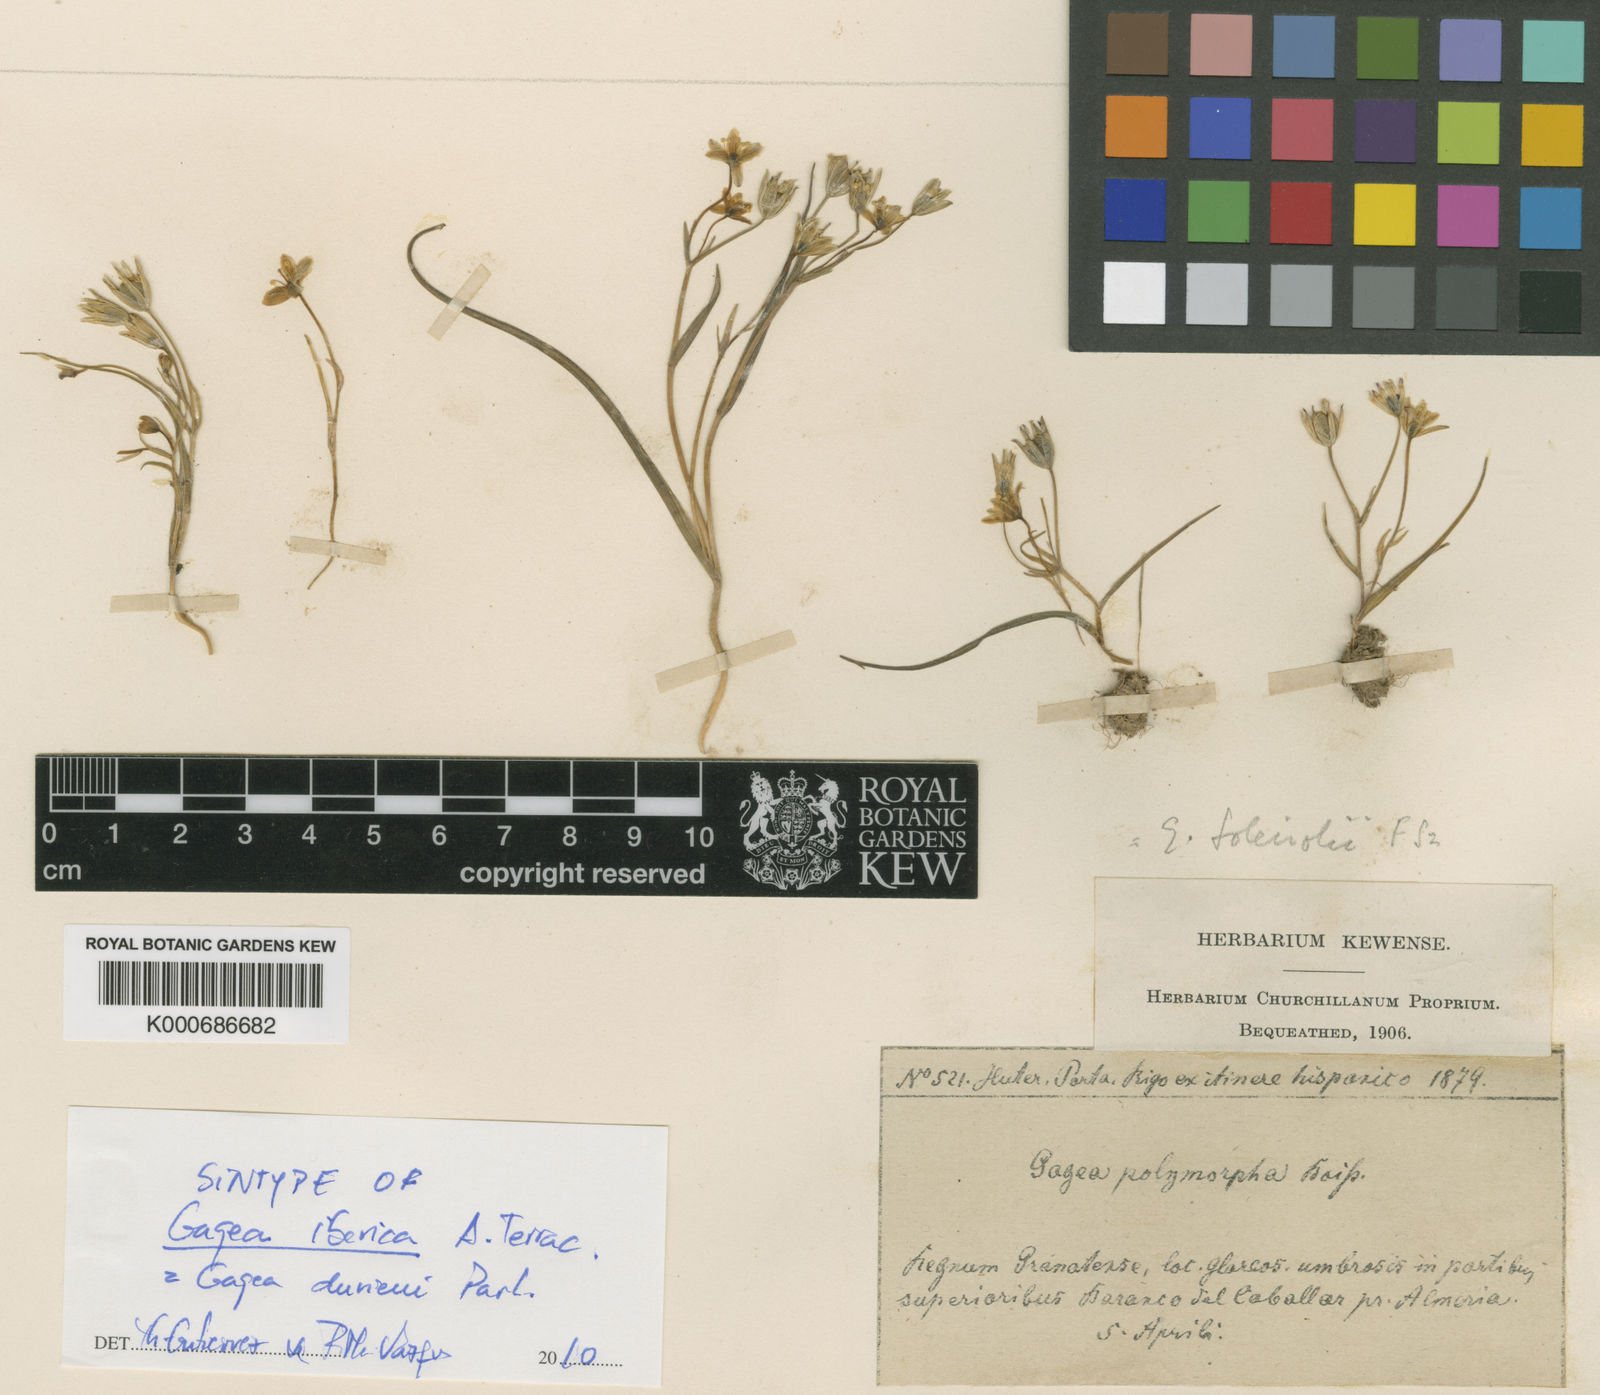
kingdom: Plantae
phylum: Tracheophyta
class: Liliopsida
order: Liliales
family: Liliaceae
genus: Gagea
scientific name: Gagea
